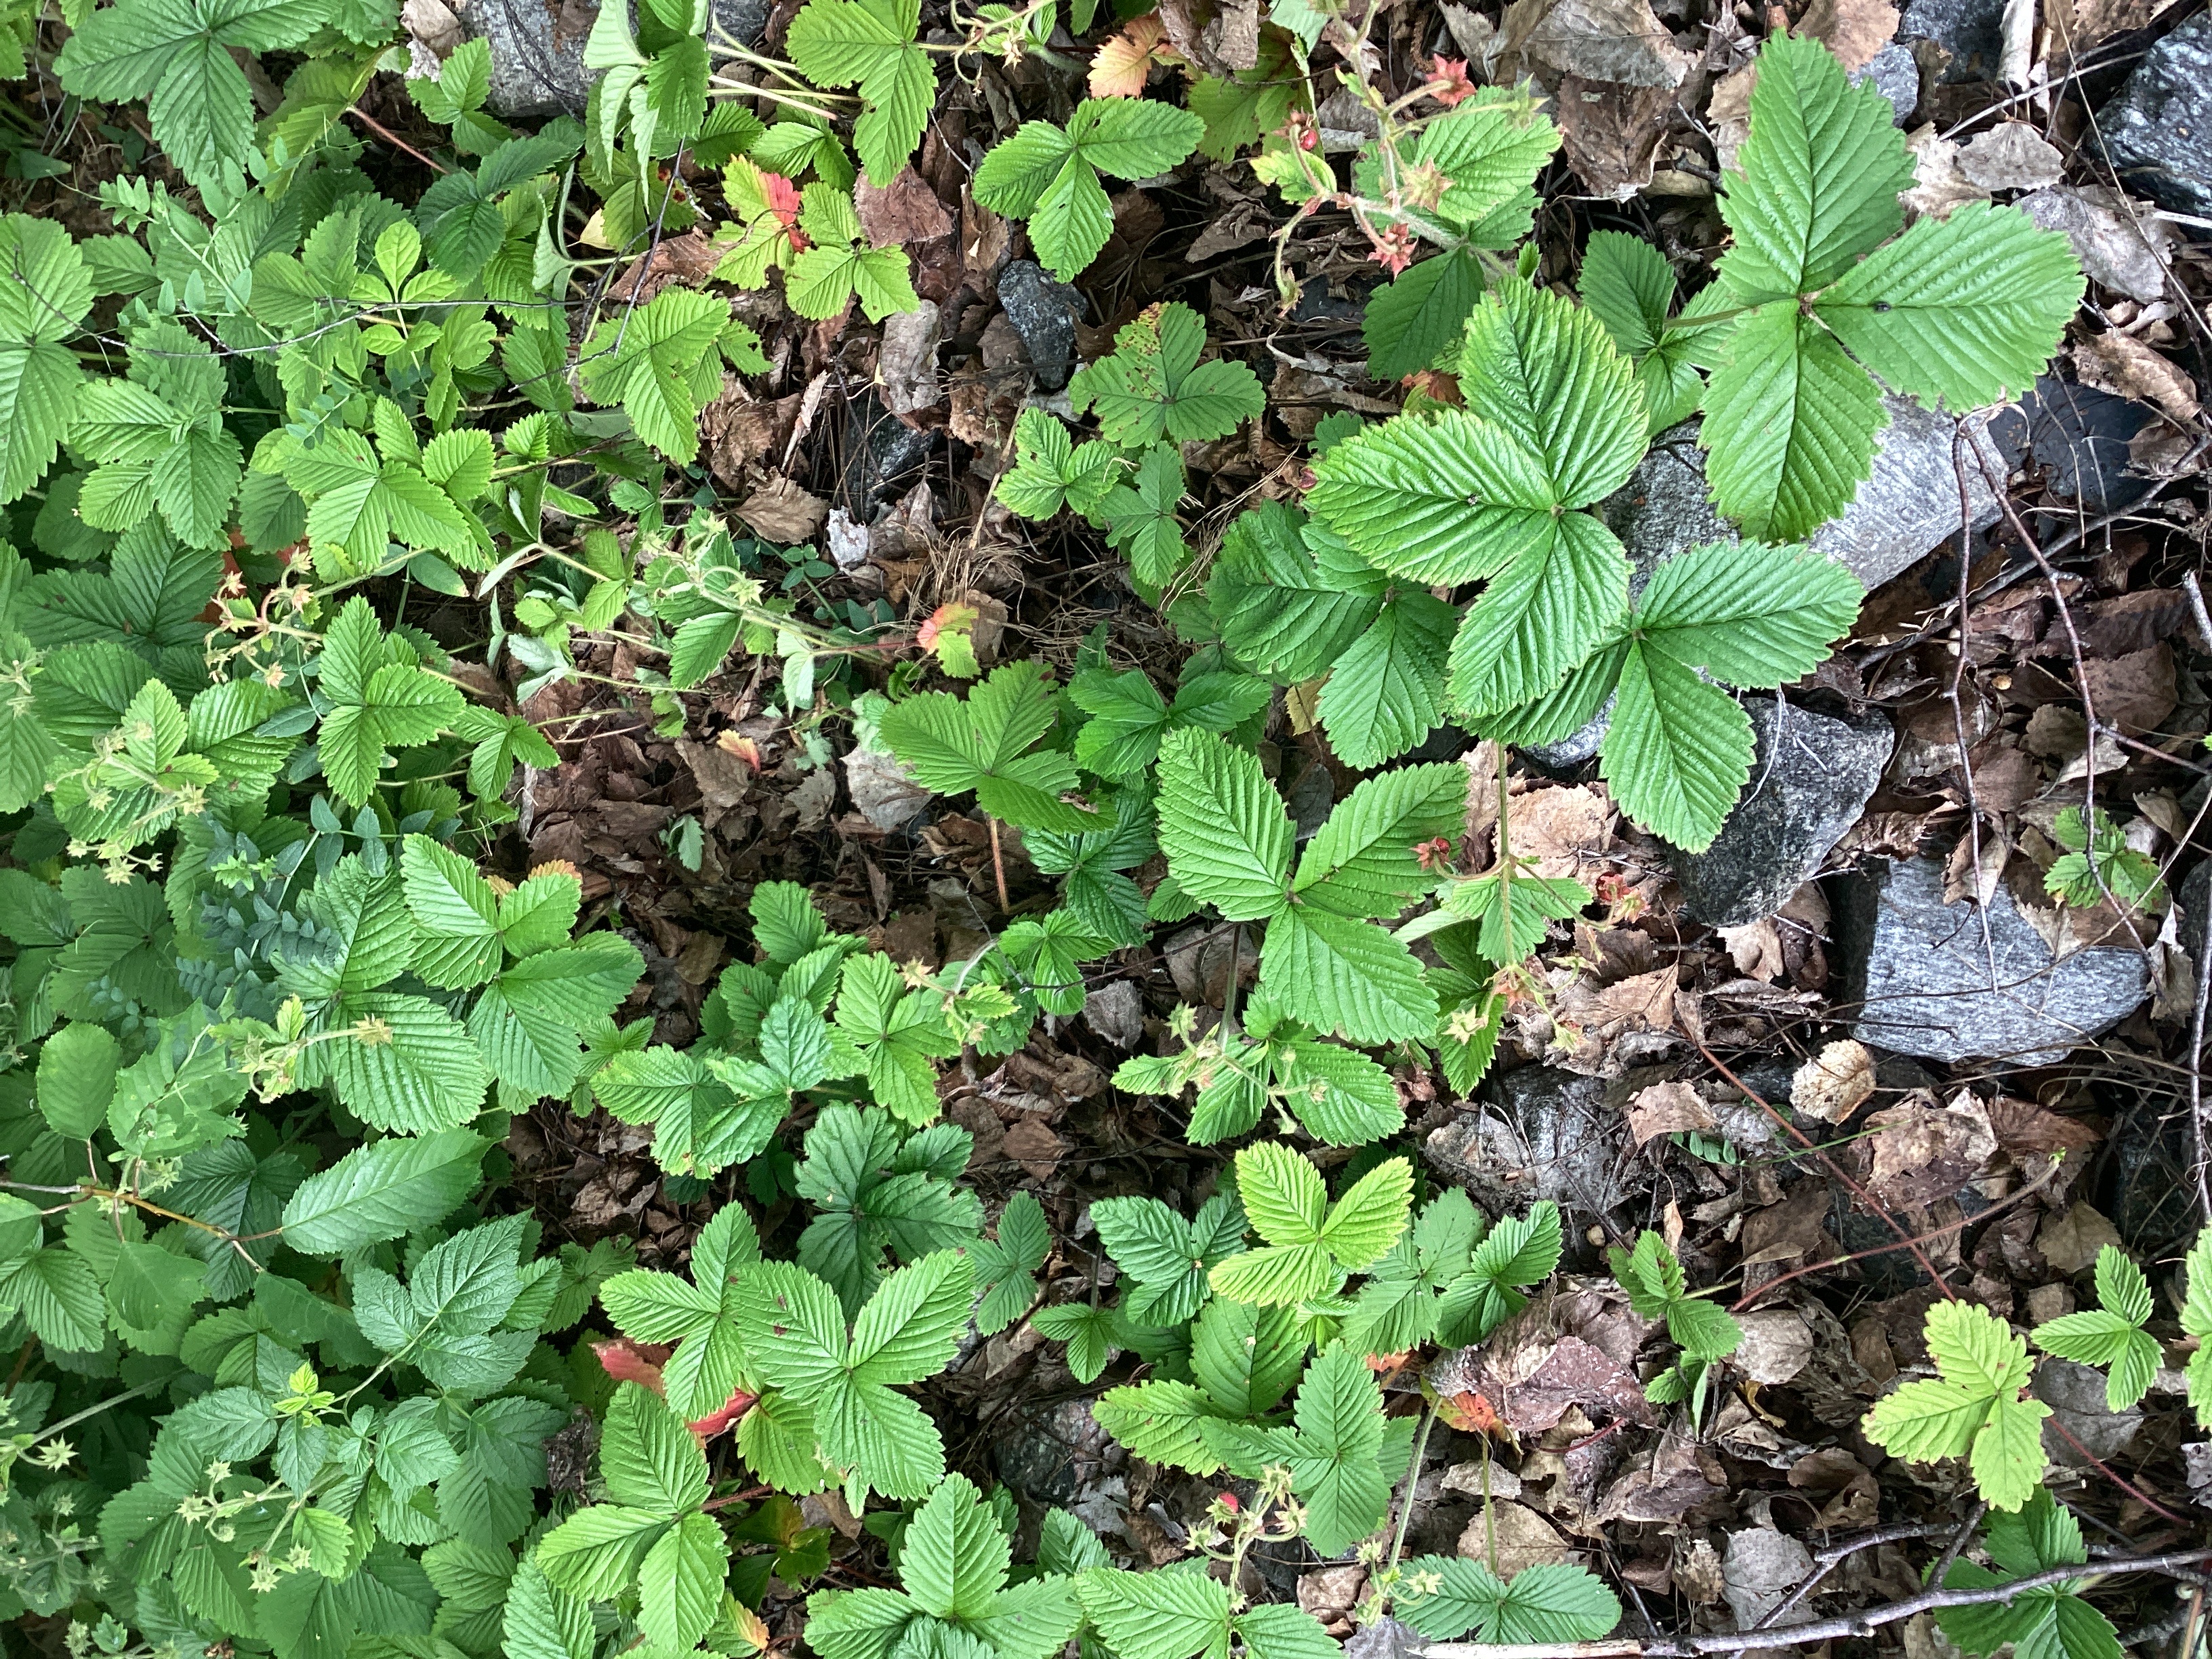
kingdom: Plantae
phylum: Tracheophyta
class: Magnoliopsida
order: Rosales
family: Rosaceae
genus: Fragaria
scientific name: Fragaria moschata
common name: moskusjordbær
